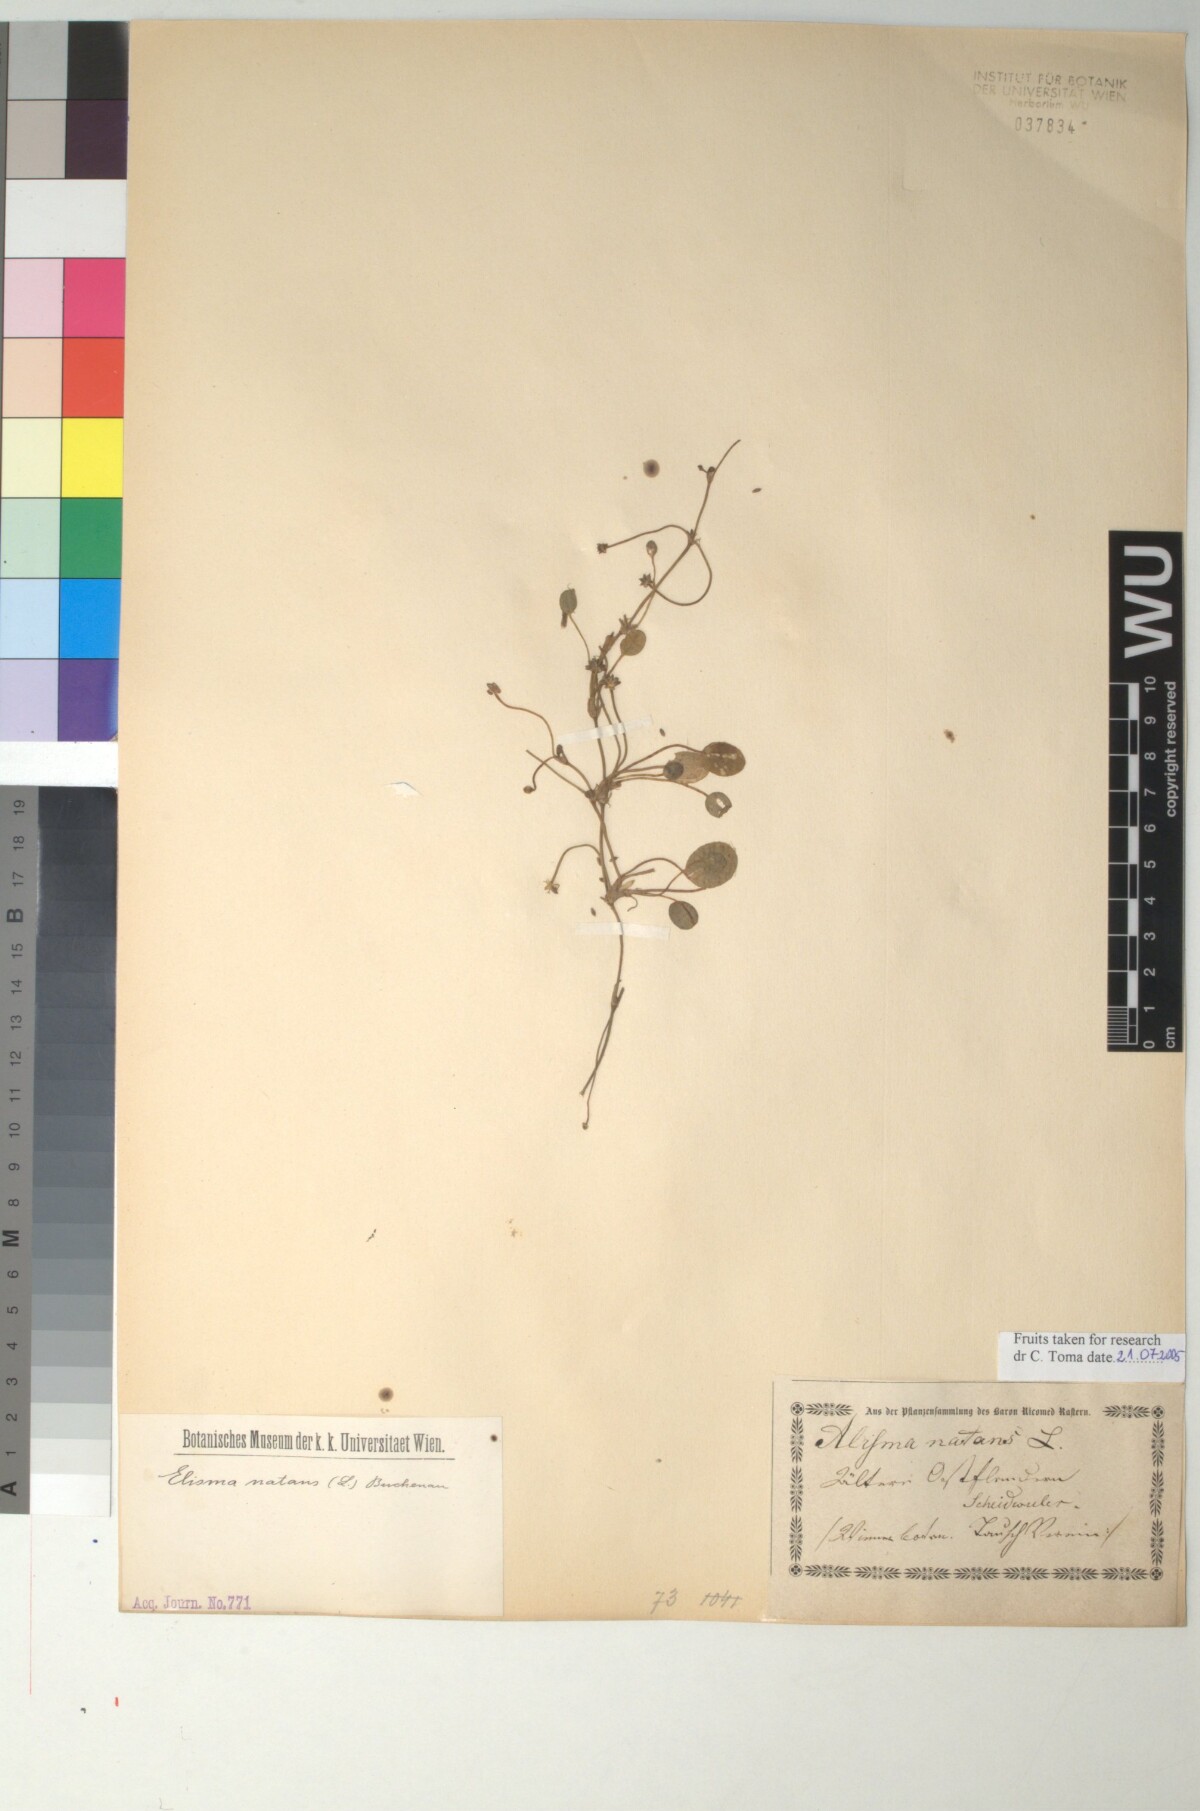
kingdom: Plantae
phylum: Tracheophyta
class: Liliopsida
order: Alismatales
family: Alismataceae
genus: Luronium
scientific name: Luronium natans
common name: Floating water-plantain
